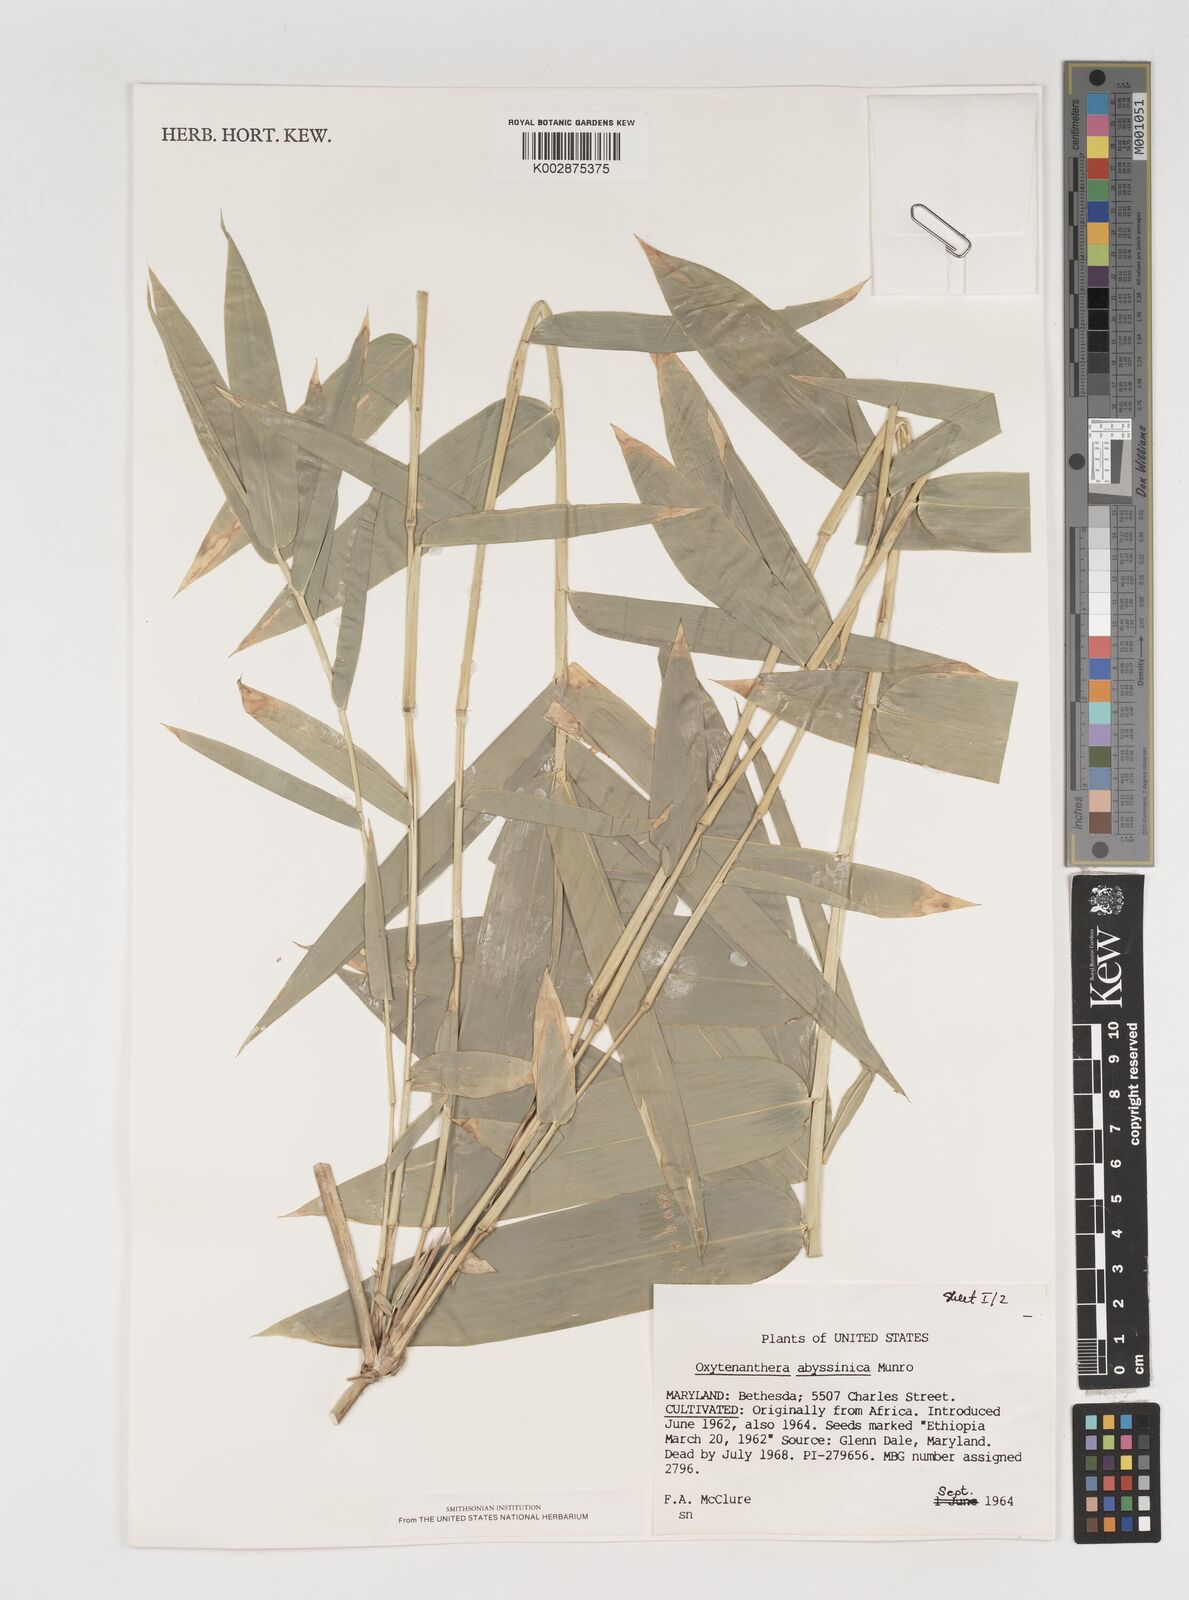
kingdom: Plantae
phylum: Tracheophyta
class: Liliopsida
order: Poales
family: Poaceae
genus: Oxytenanthera
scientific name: Oxytenanthera abyssinica
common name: Wine bamboo
